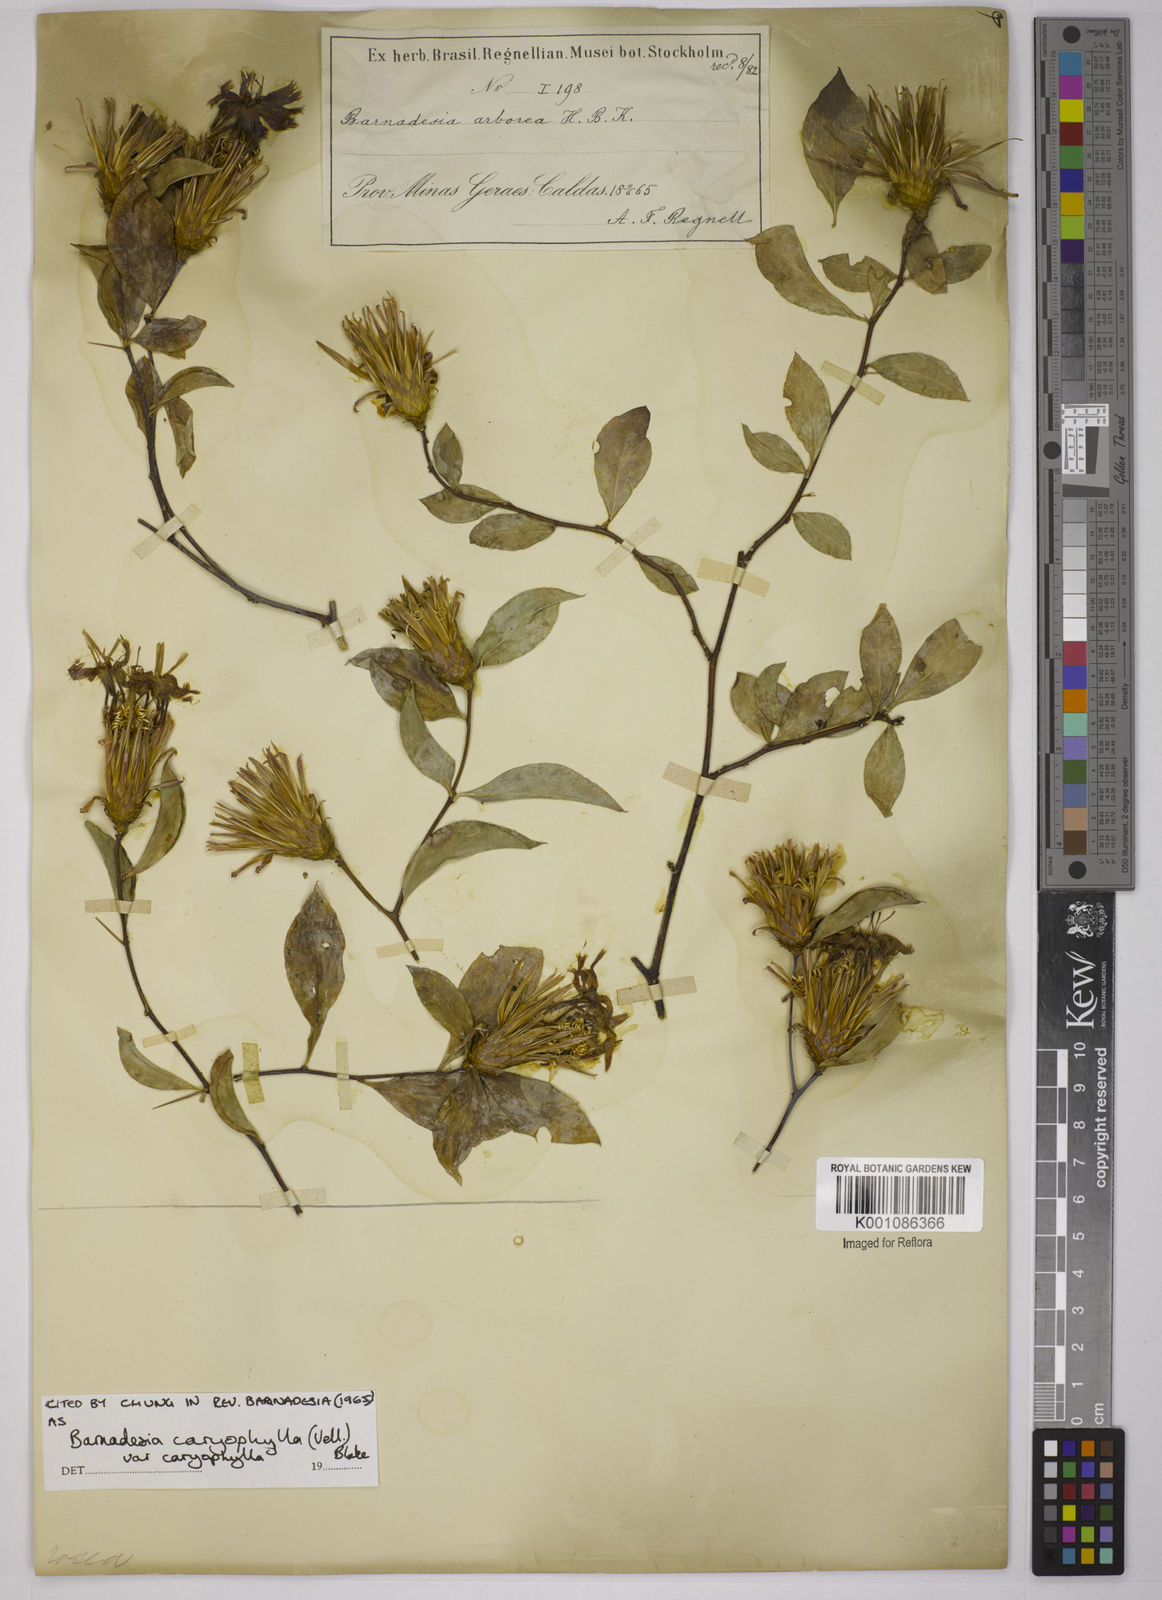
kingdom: Plantae
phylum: Tracheophyta
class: Magnoliopsida
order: Asterales
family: Asteraceae
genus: Barnadesia
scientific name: Barnadesia caryophylla
